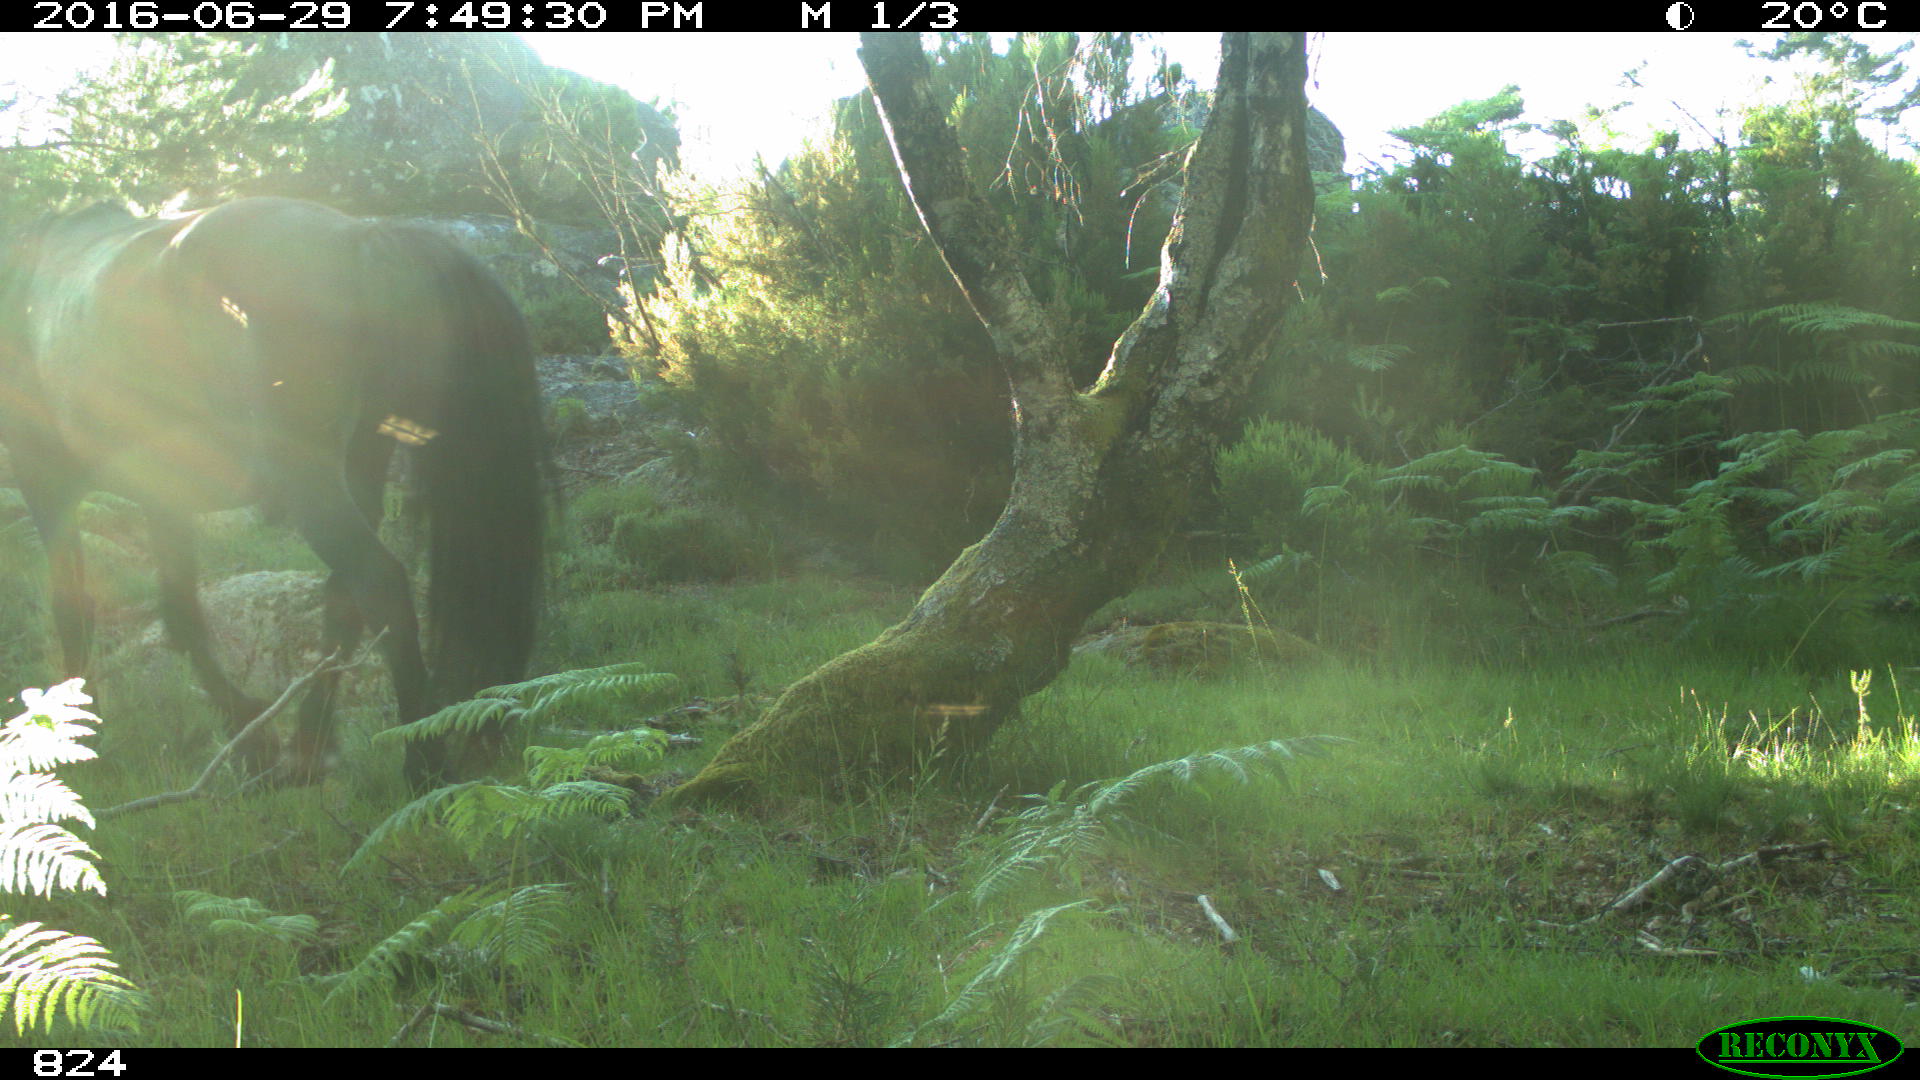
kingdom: Animalia
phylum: Chordata
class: Mammalia
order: Perissodactyla
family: Equidae
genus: Equus
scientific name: Equus caballus
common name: Horse
